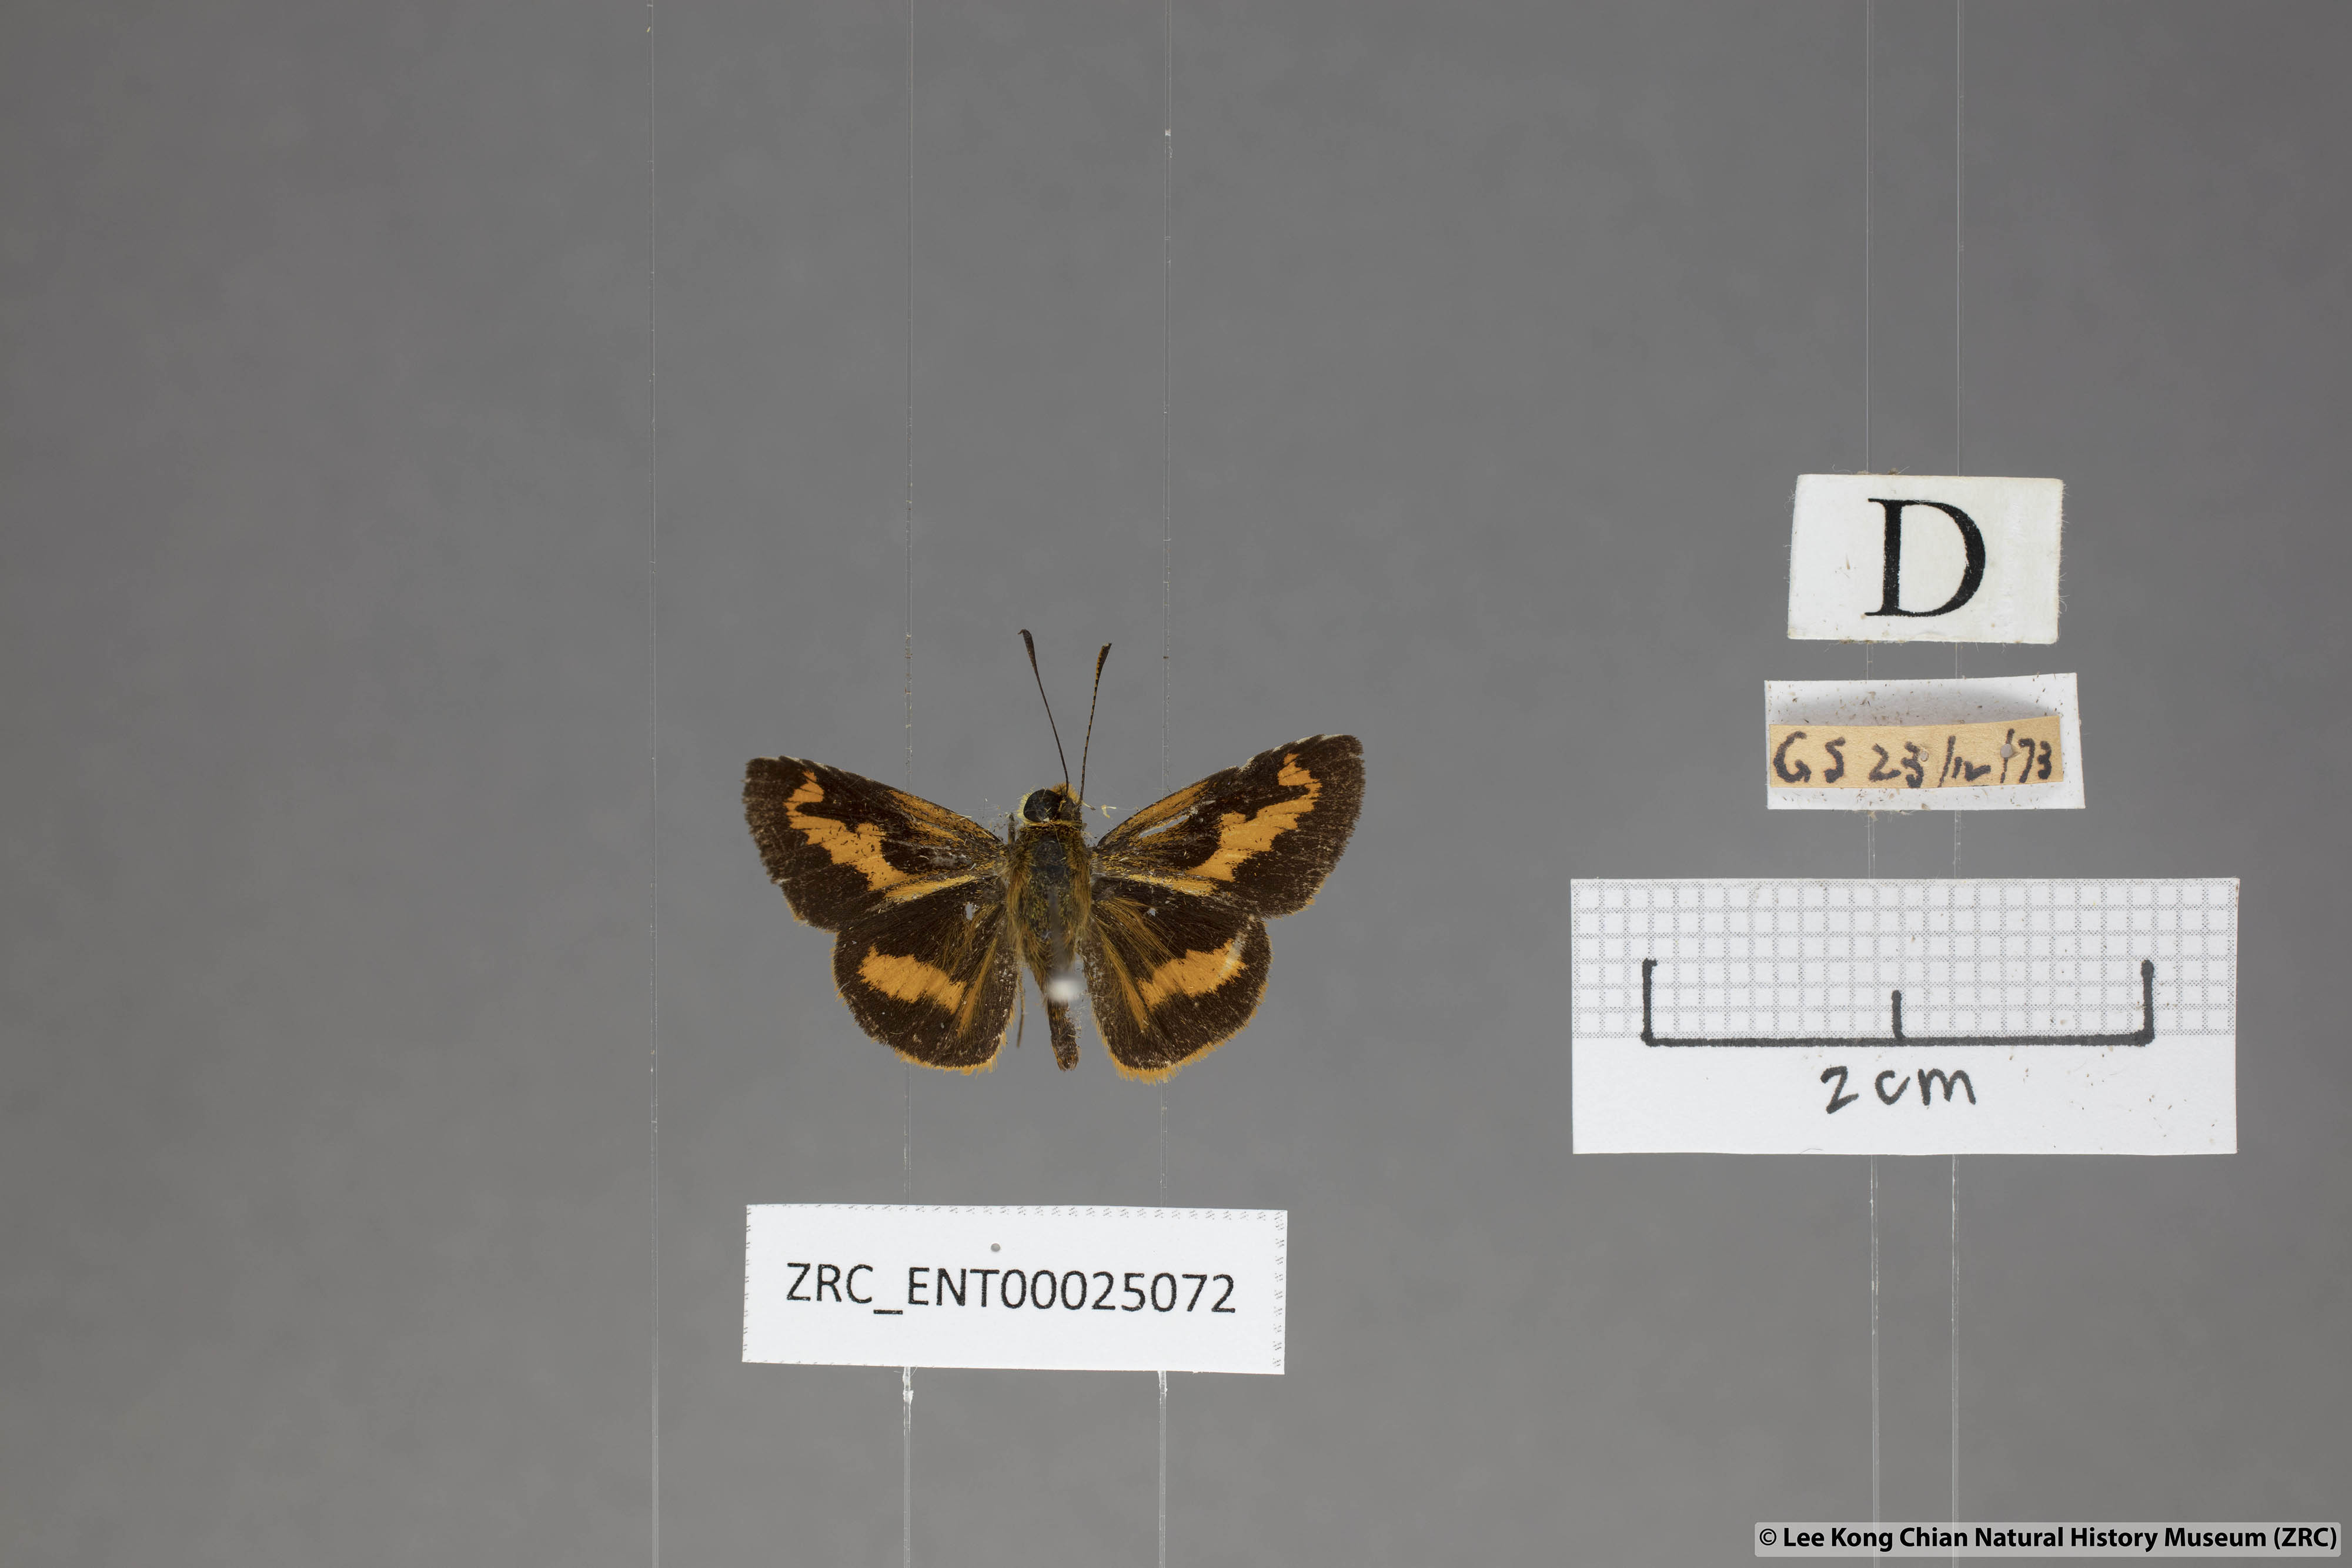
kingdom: Animalia
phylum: Arthropoda
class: Insecta
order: Lepidoptera
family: Hesperiidae
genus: Oriens
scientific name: Oriens gola
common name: Common dartlet
